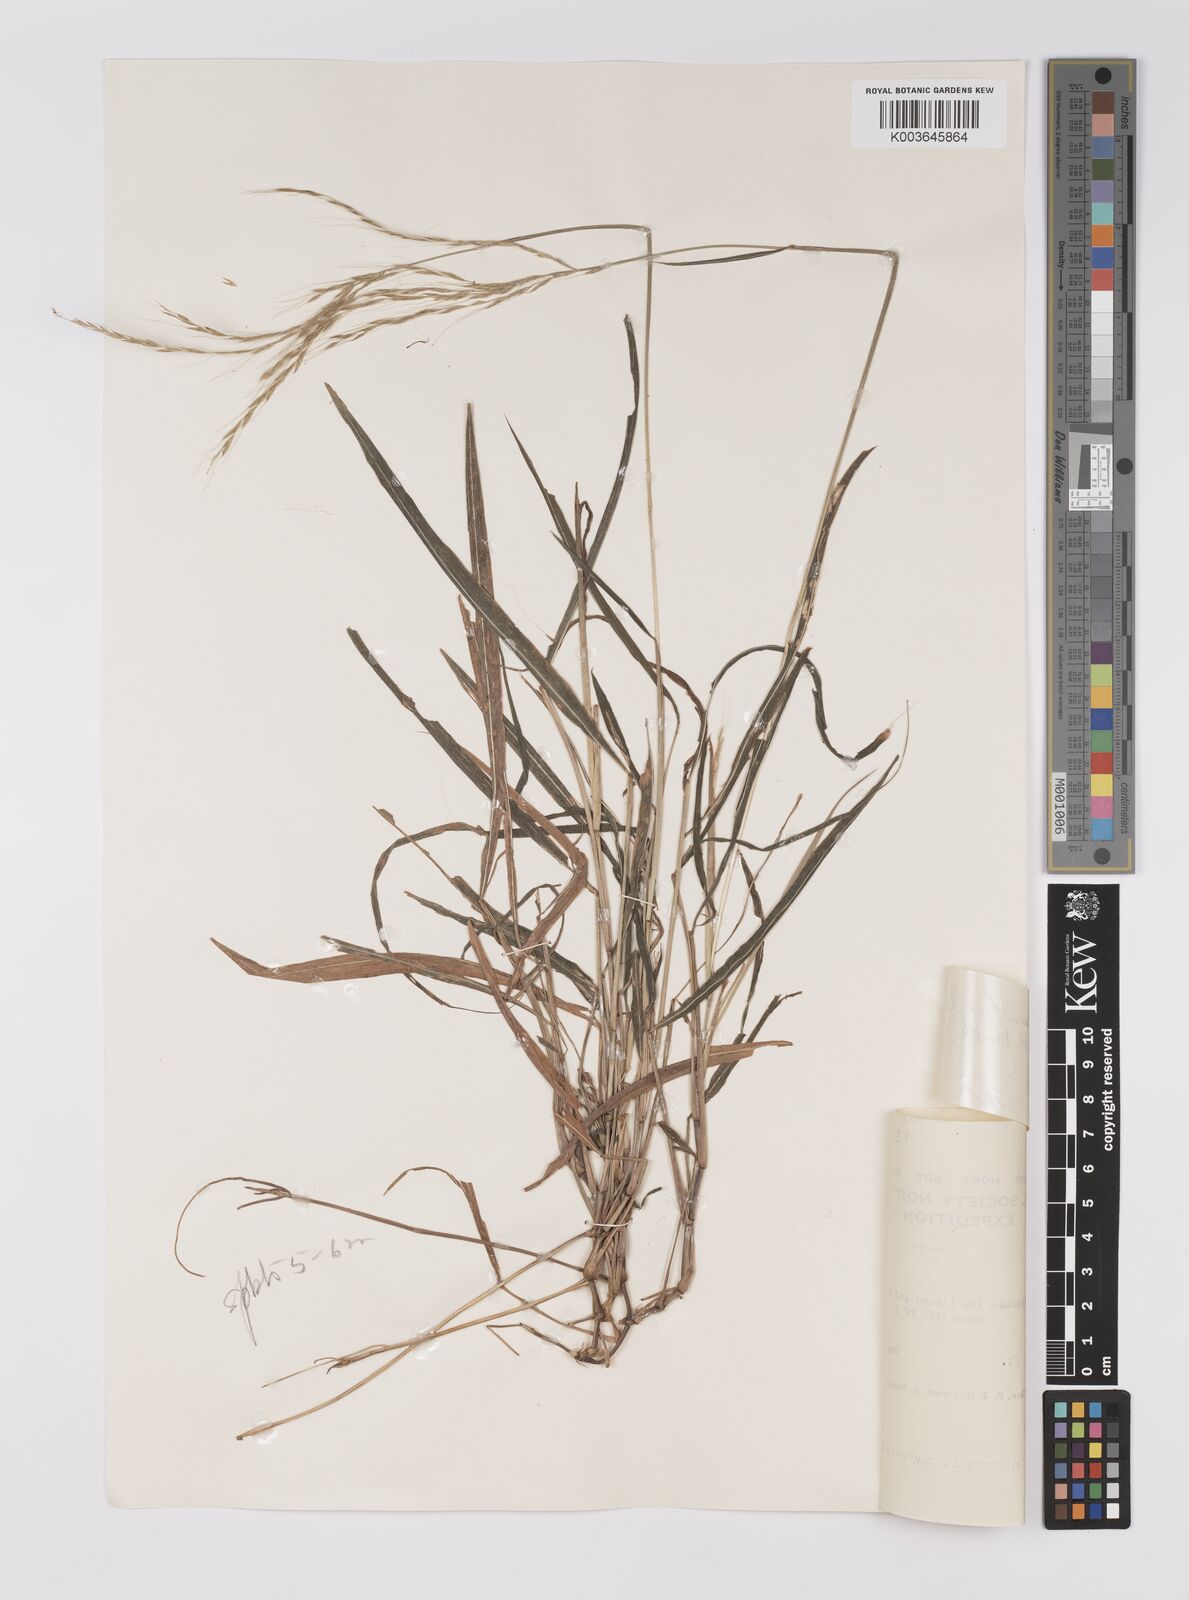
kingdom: Plantae
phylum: Tracheophyta
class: Liliopsida
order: Poales
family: Poaceae
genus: Microstegium
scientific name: Microstegium geniculatum
